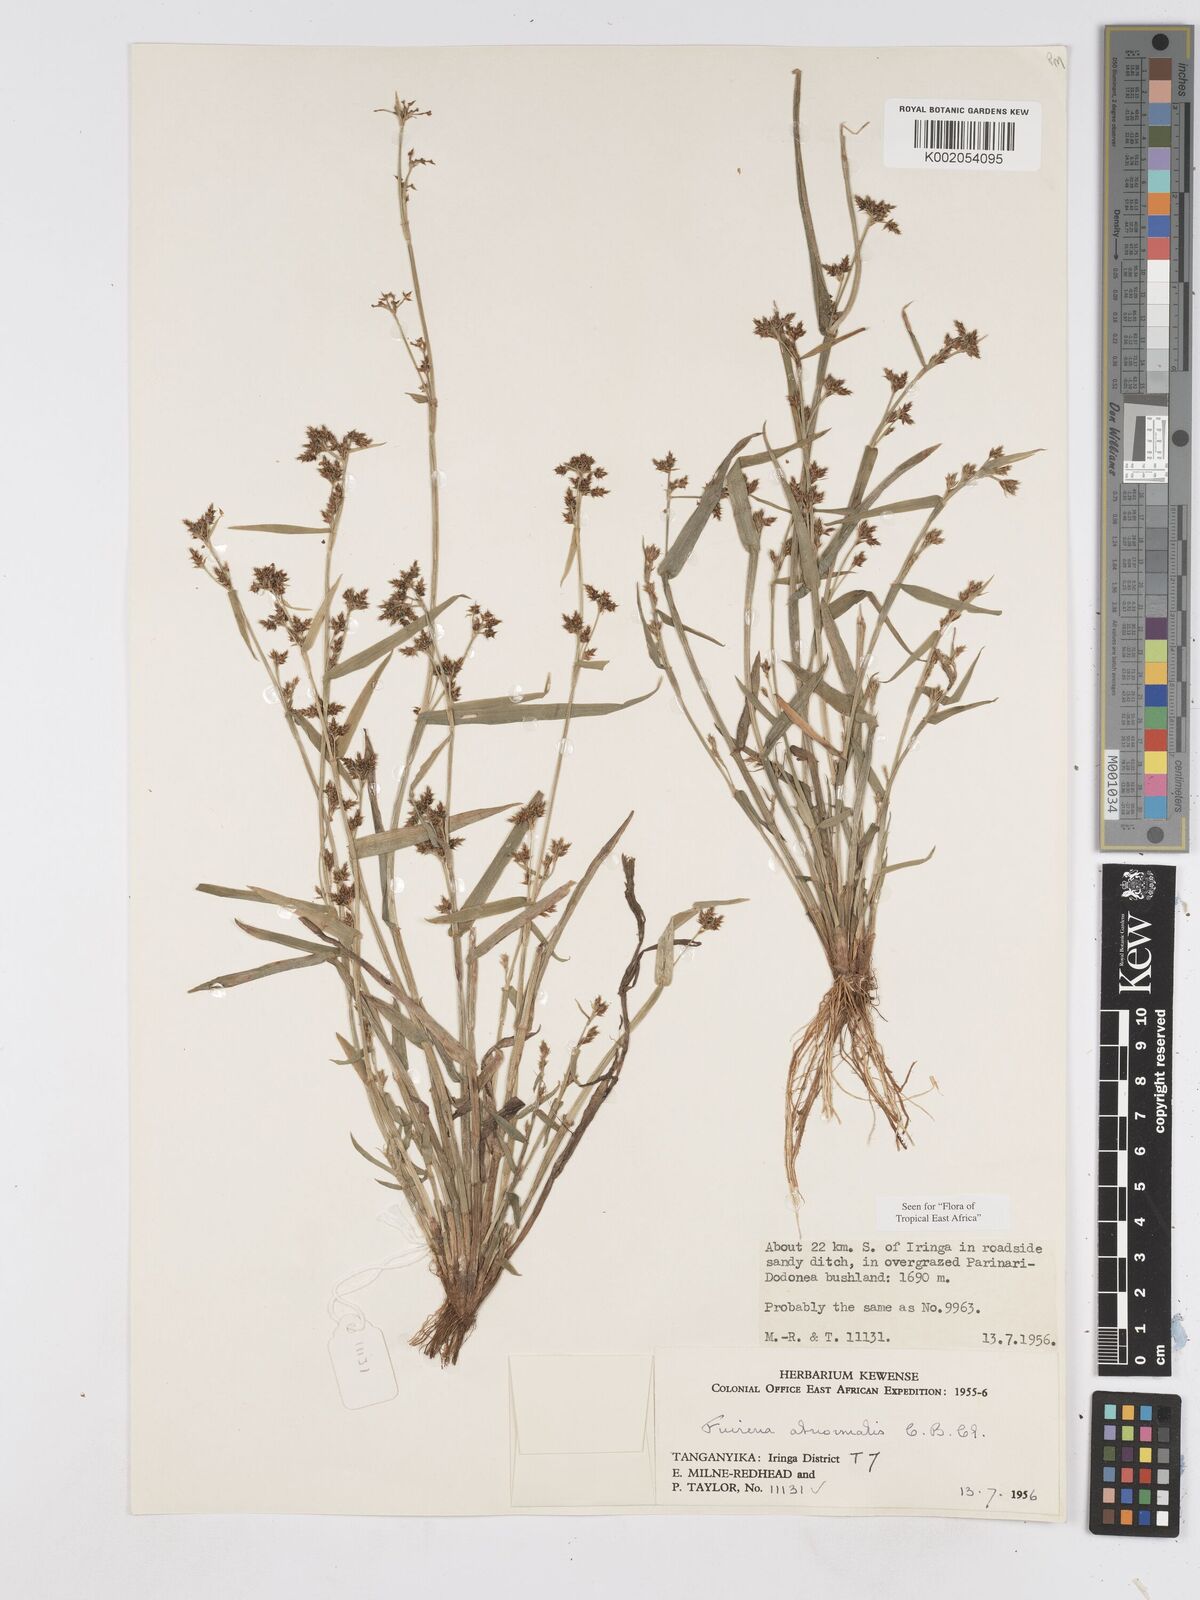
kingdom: Plantae
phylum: Tracheophyta
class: Liliopsida
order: Poales
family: Cyperaceae
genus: Fuirena
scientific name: Fuirena abnormalis
